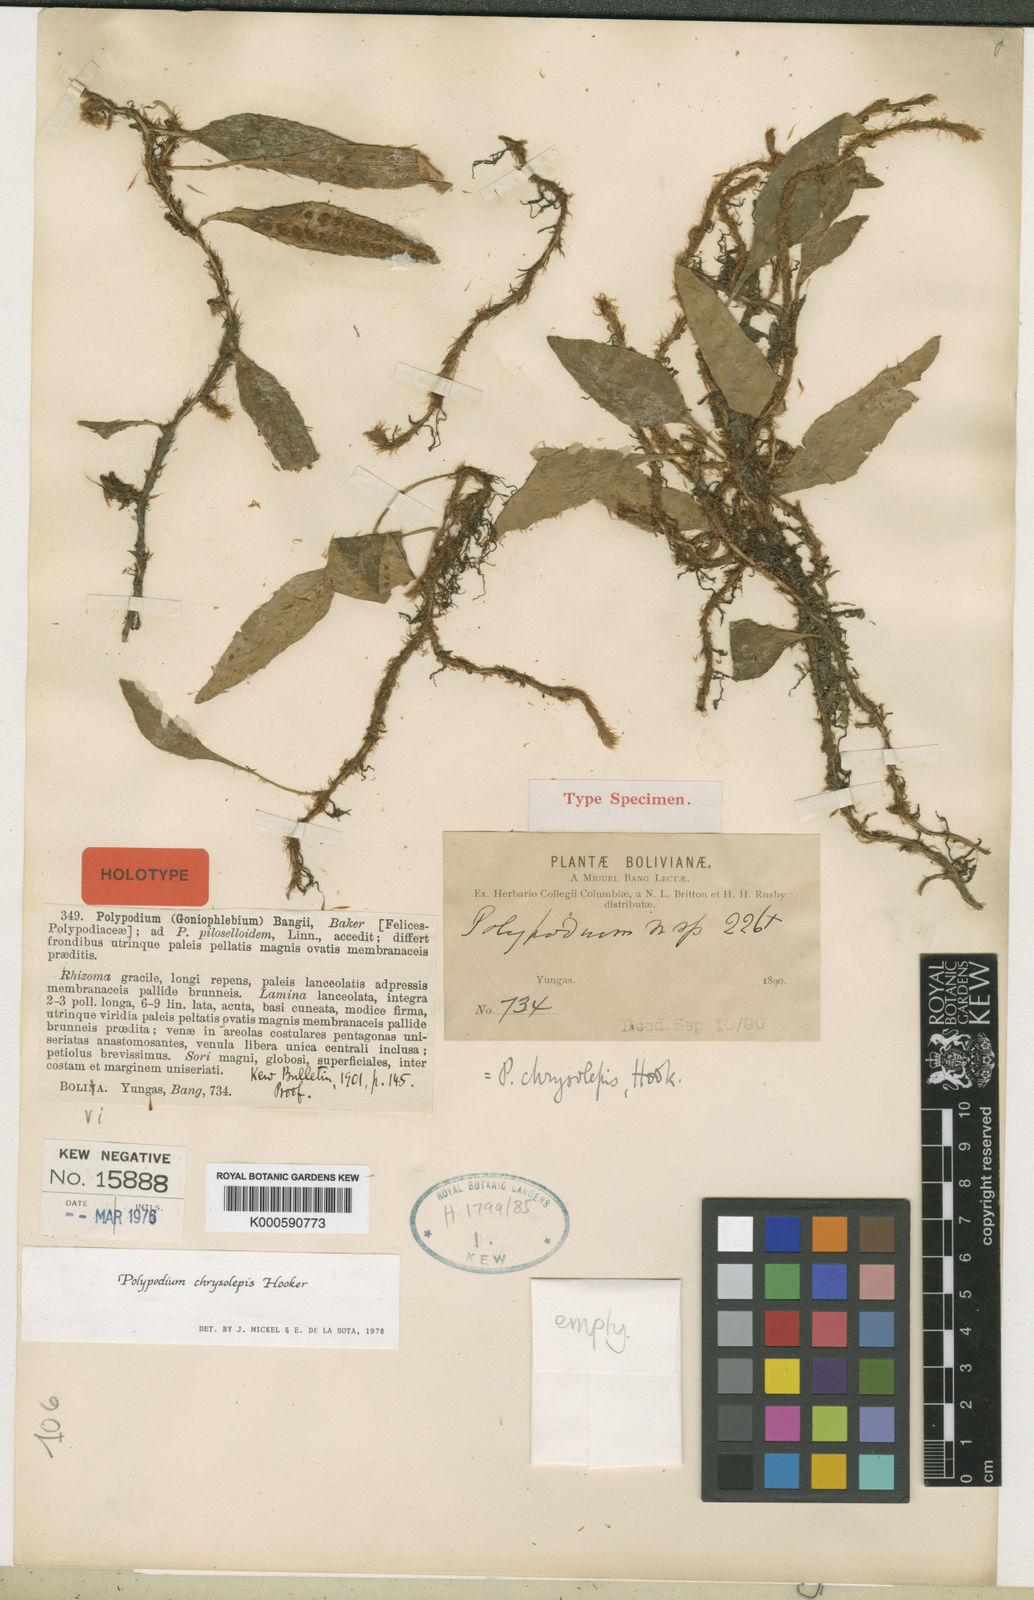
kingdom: Plantae
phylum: Tracheophyta
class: Polypodiopsida
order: Polypodiales
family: Polypodiaceae
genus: Adetogramma
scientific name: Adetogramma chrysolepis
